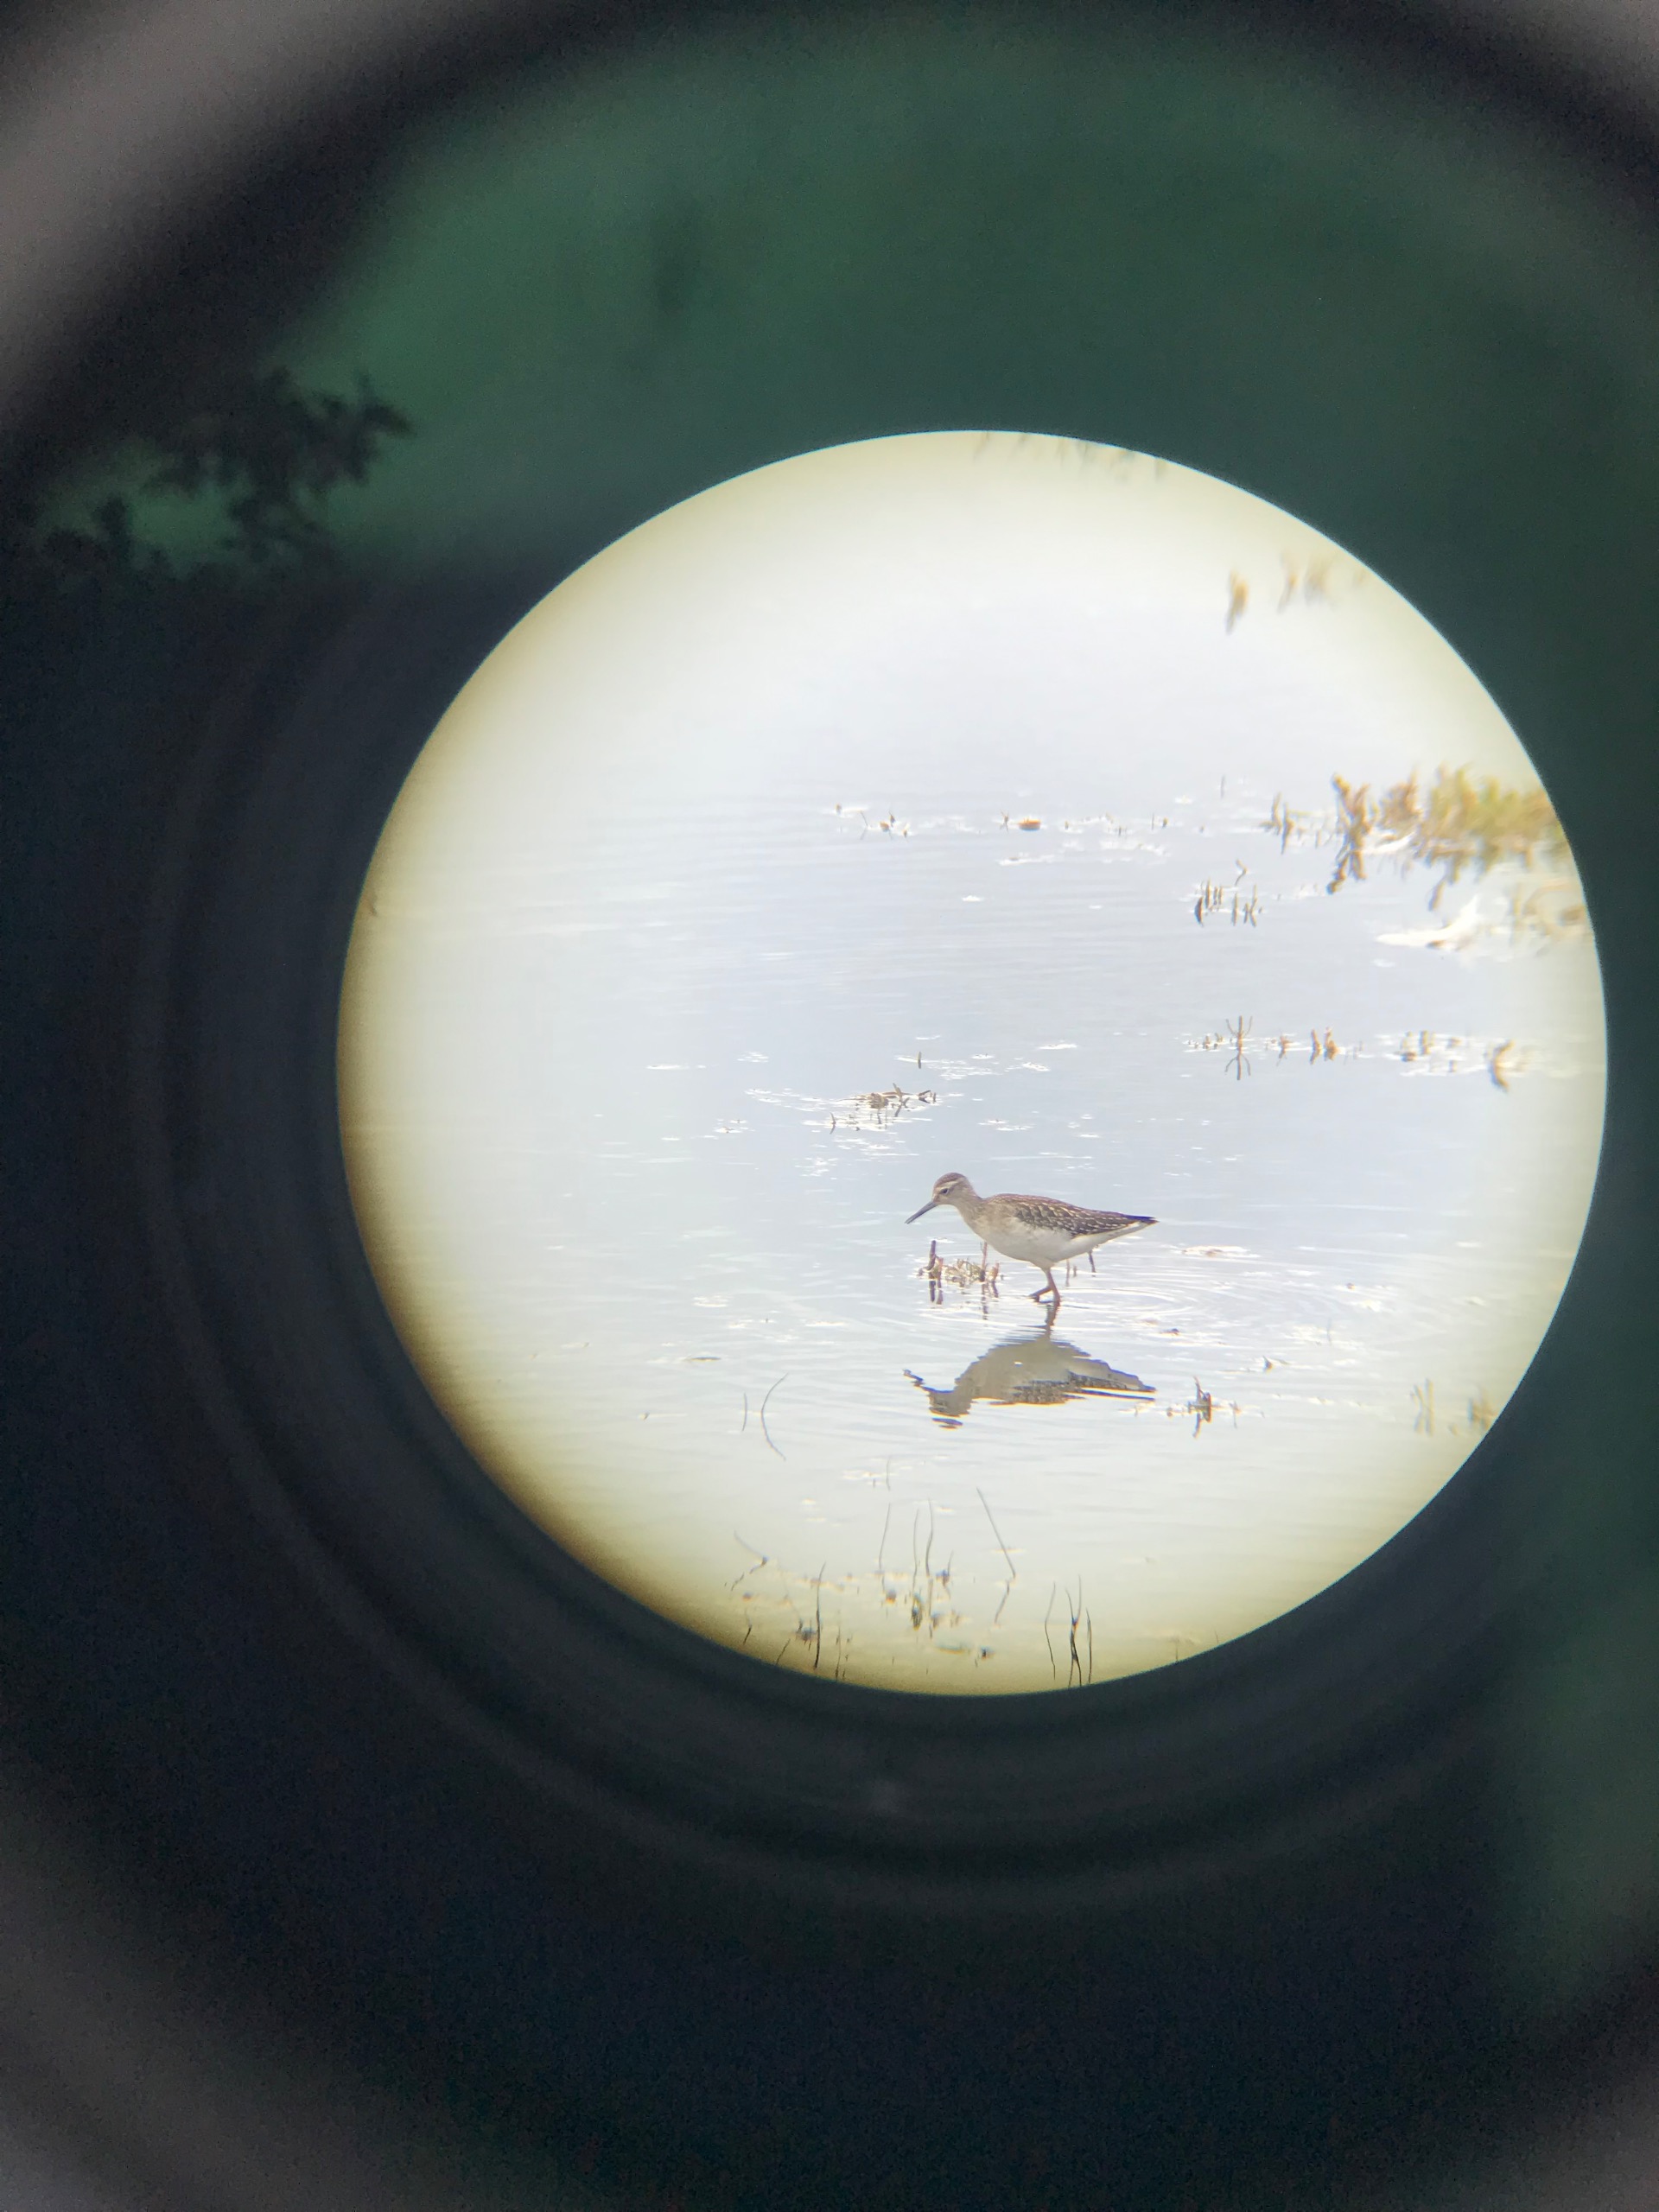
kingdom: Animalia
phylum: Chordata
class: Aves
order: Charadriiformes
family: Scolopacidae
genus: Tringa
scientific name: Tringa glareola
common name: Tinksmed
